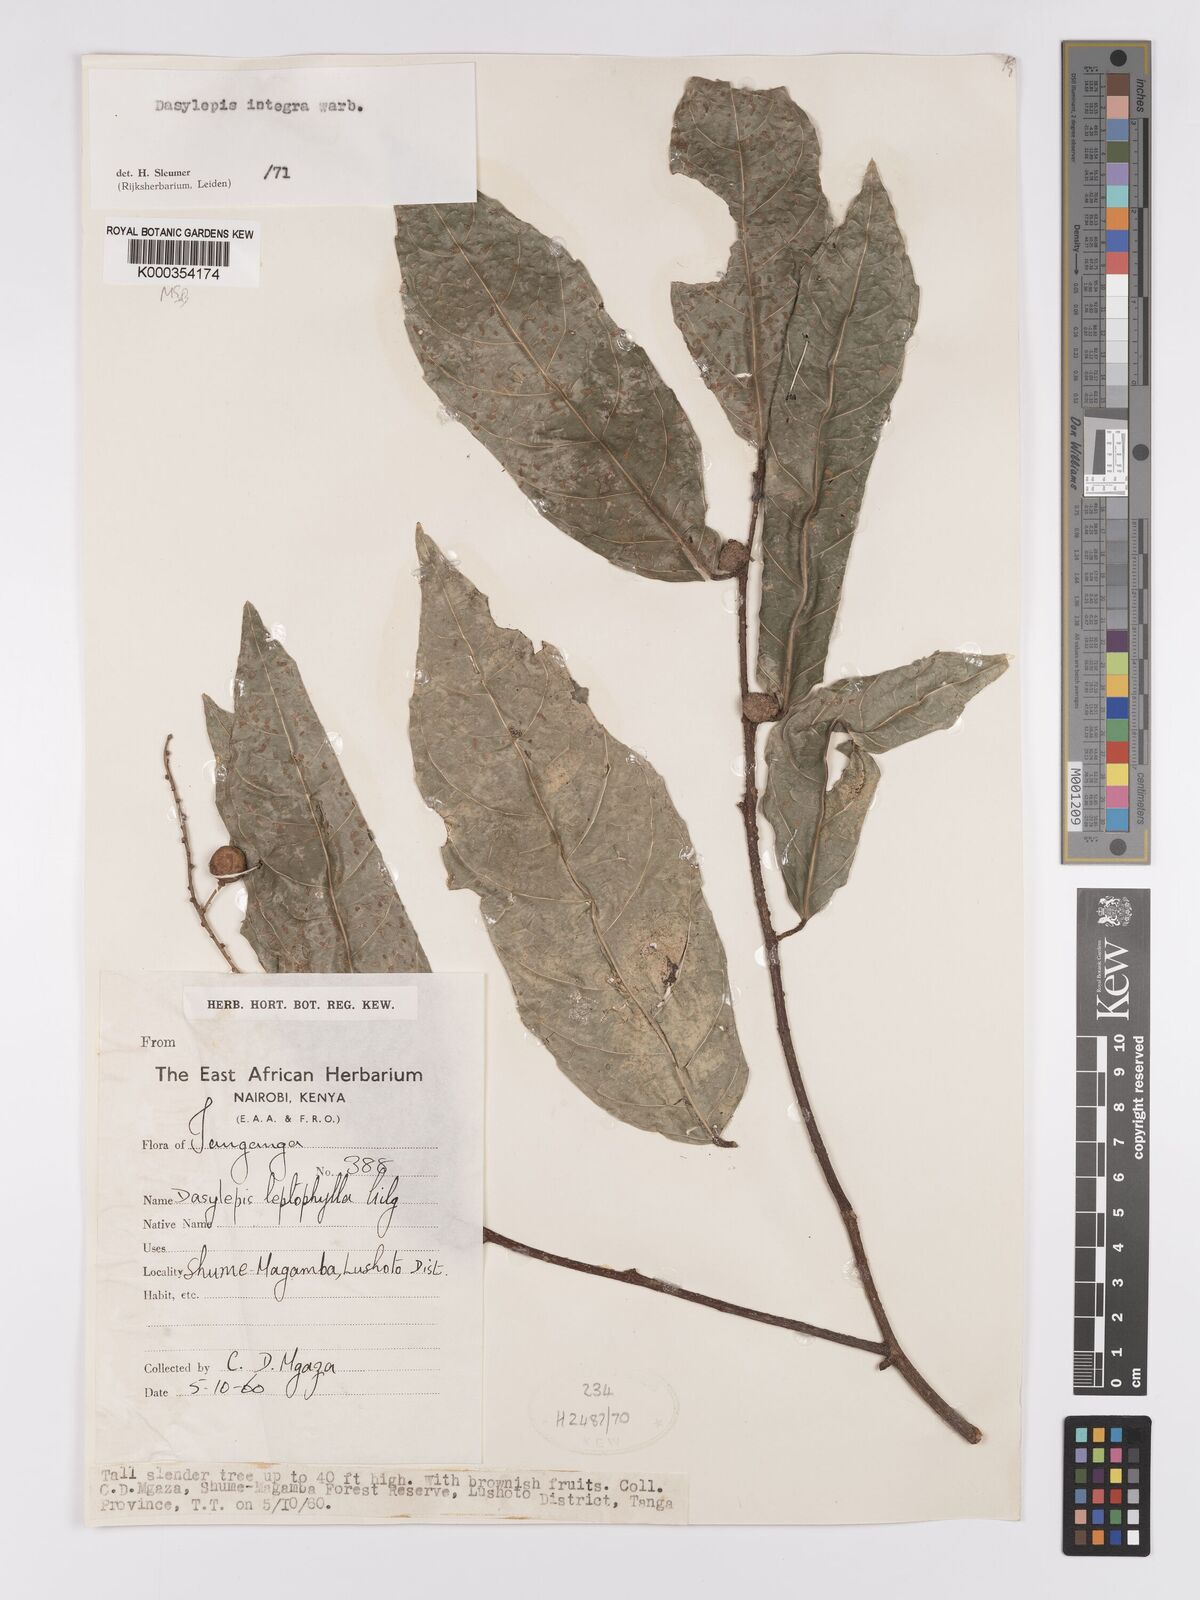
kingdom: Plantae
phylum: Tracheophyta
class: Magnoliopsida
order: Malpighiales
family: Achariaceae
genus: Dasylepis
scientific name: Dasylepis integra
